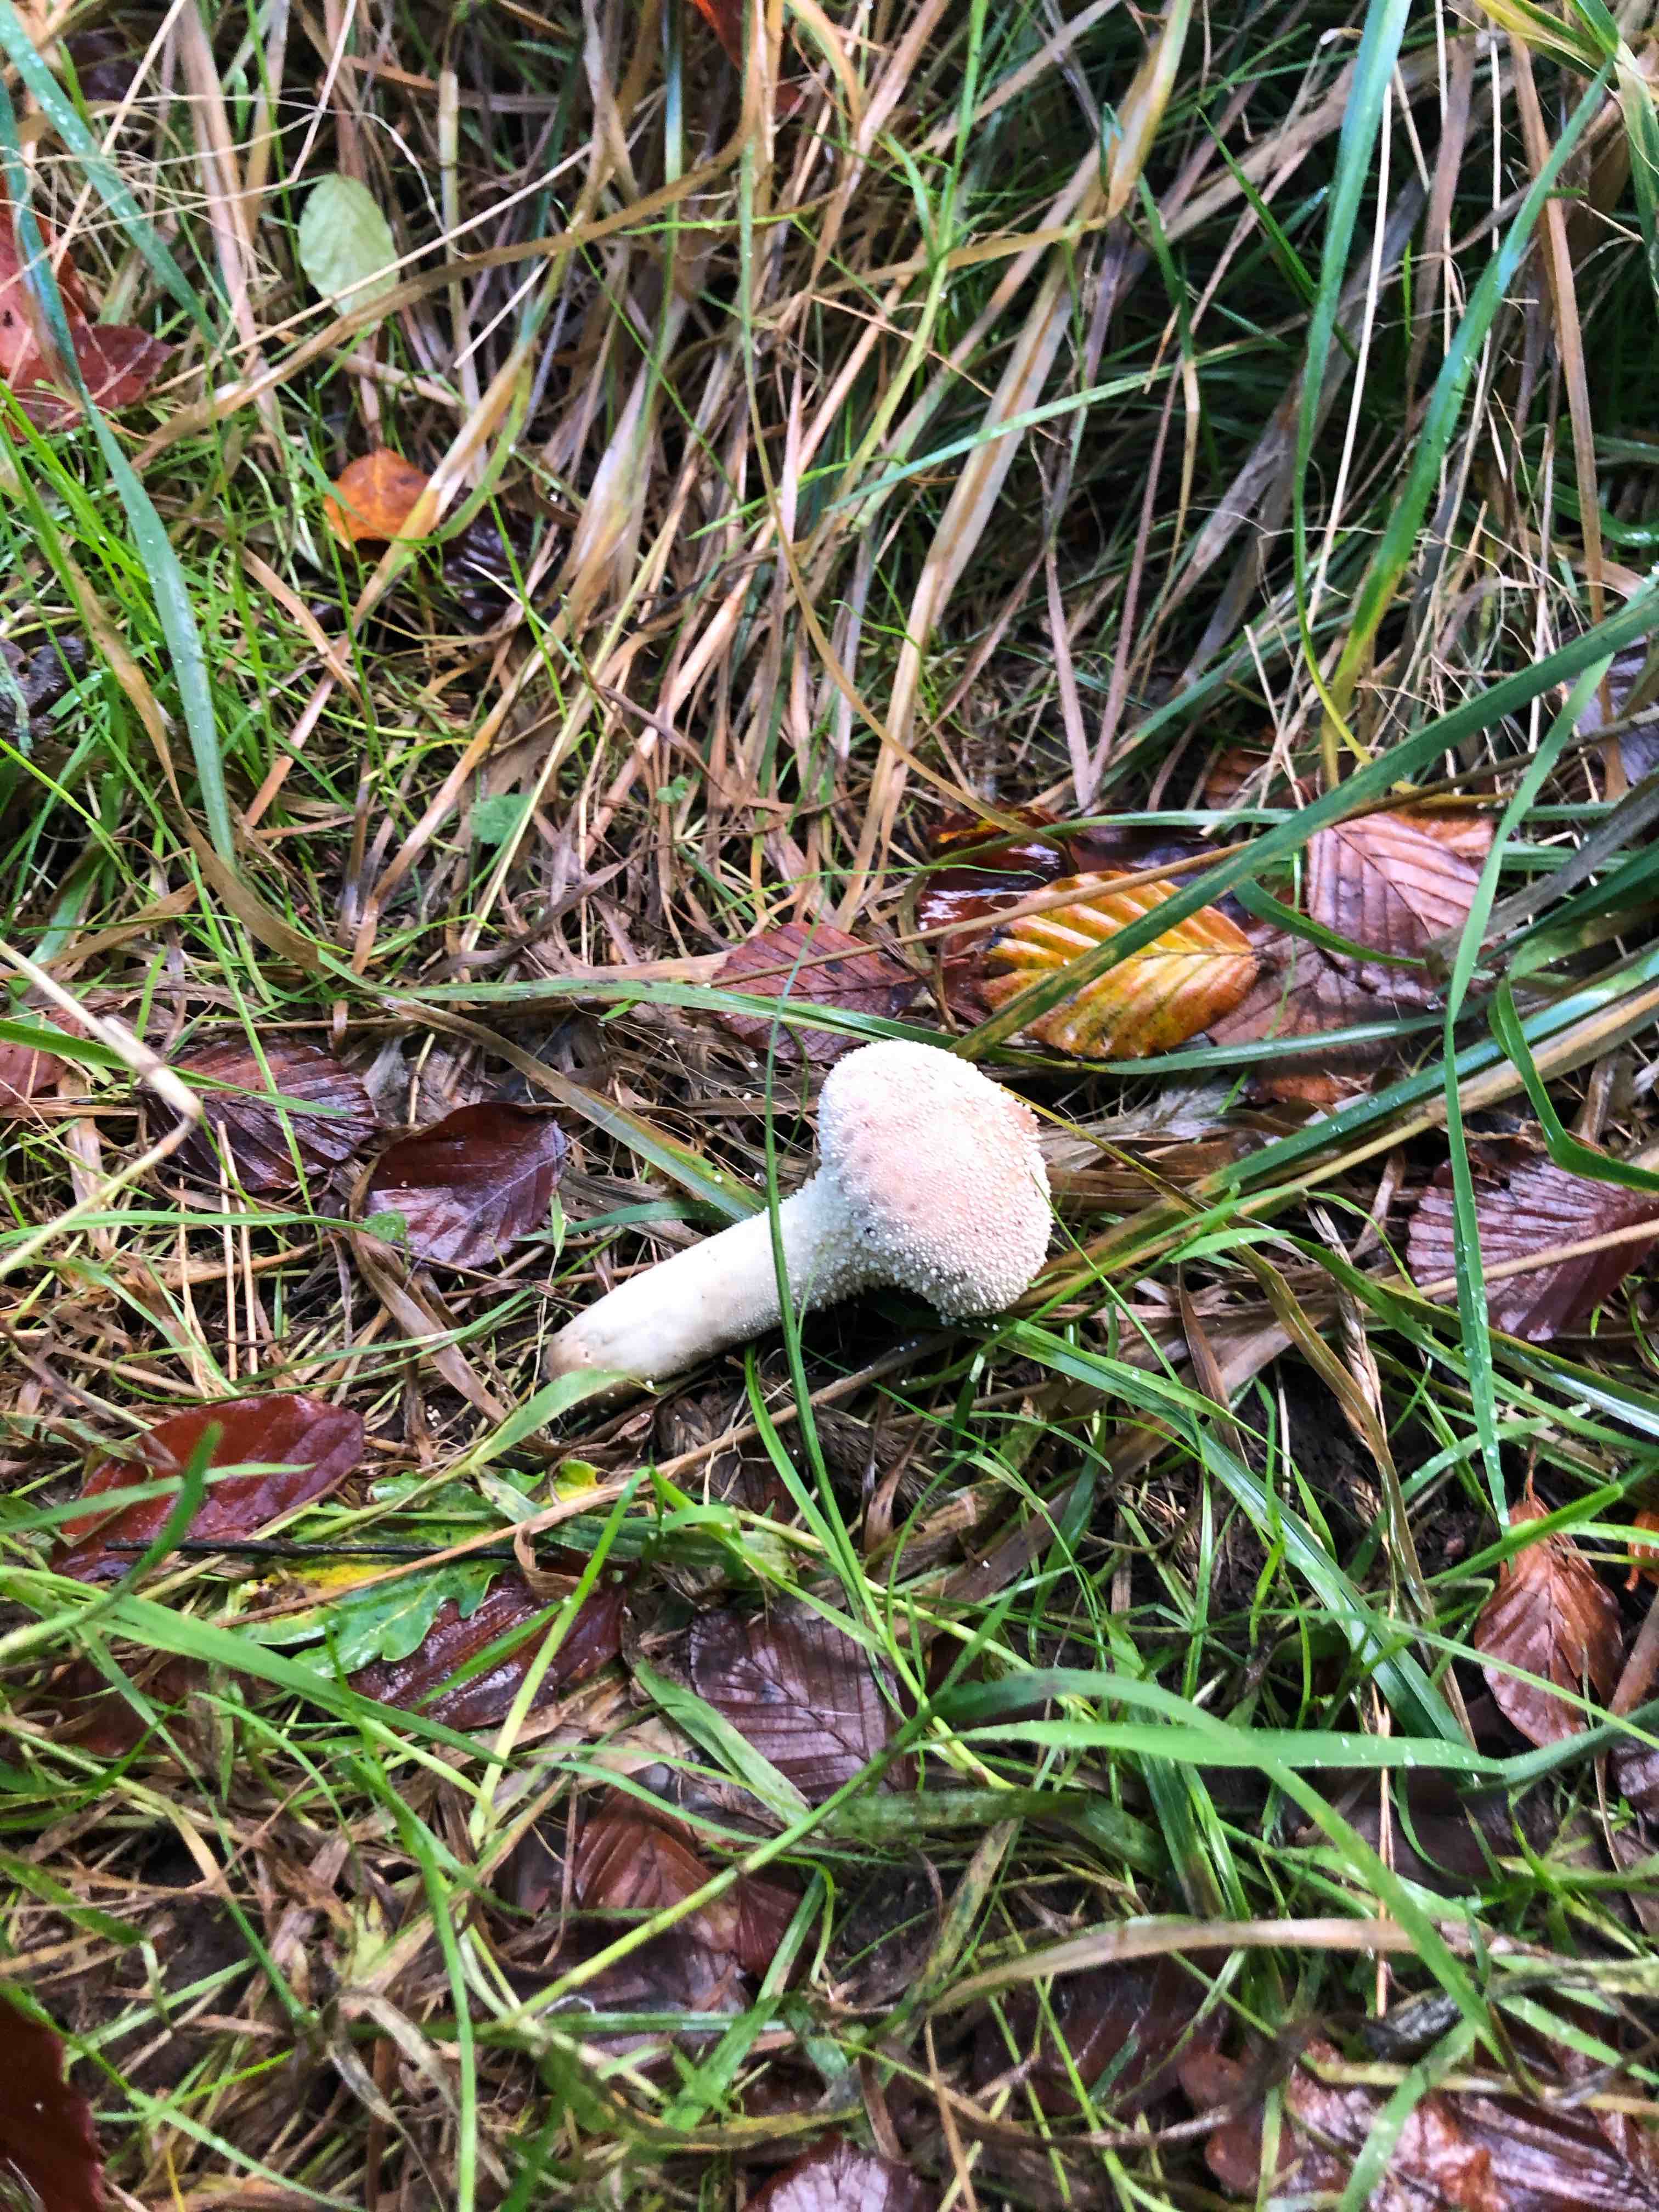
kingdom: Fungi
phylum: Basidiomycota
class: Agaricomycetes
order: Agaricales
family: Lycoperdaceae
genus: Lycoperdon
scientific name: Lycoperdon perlatum
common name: krystal-støvbold
